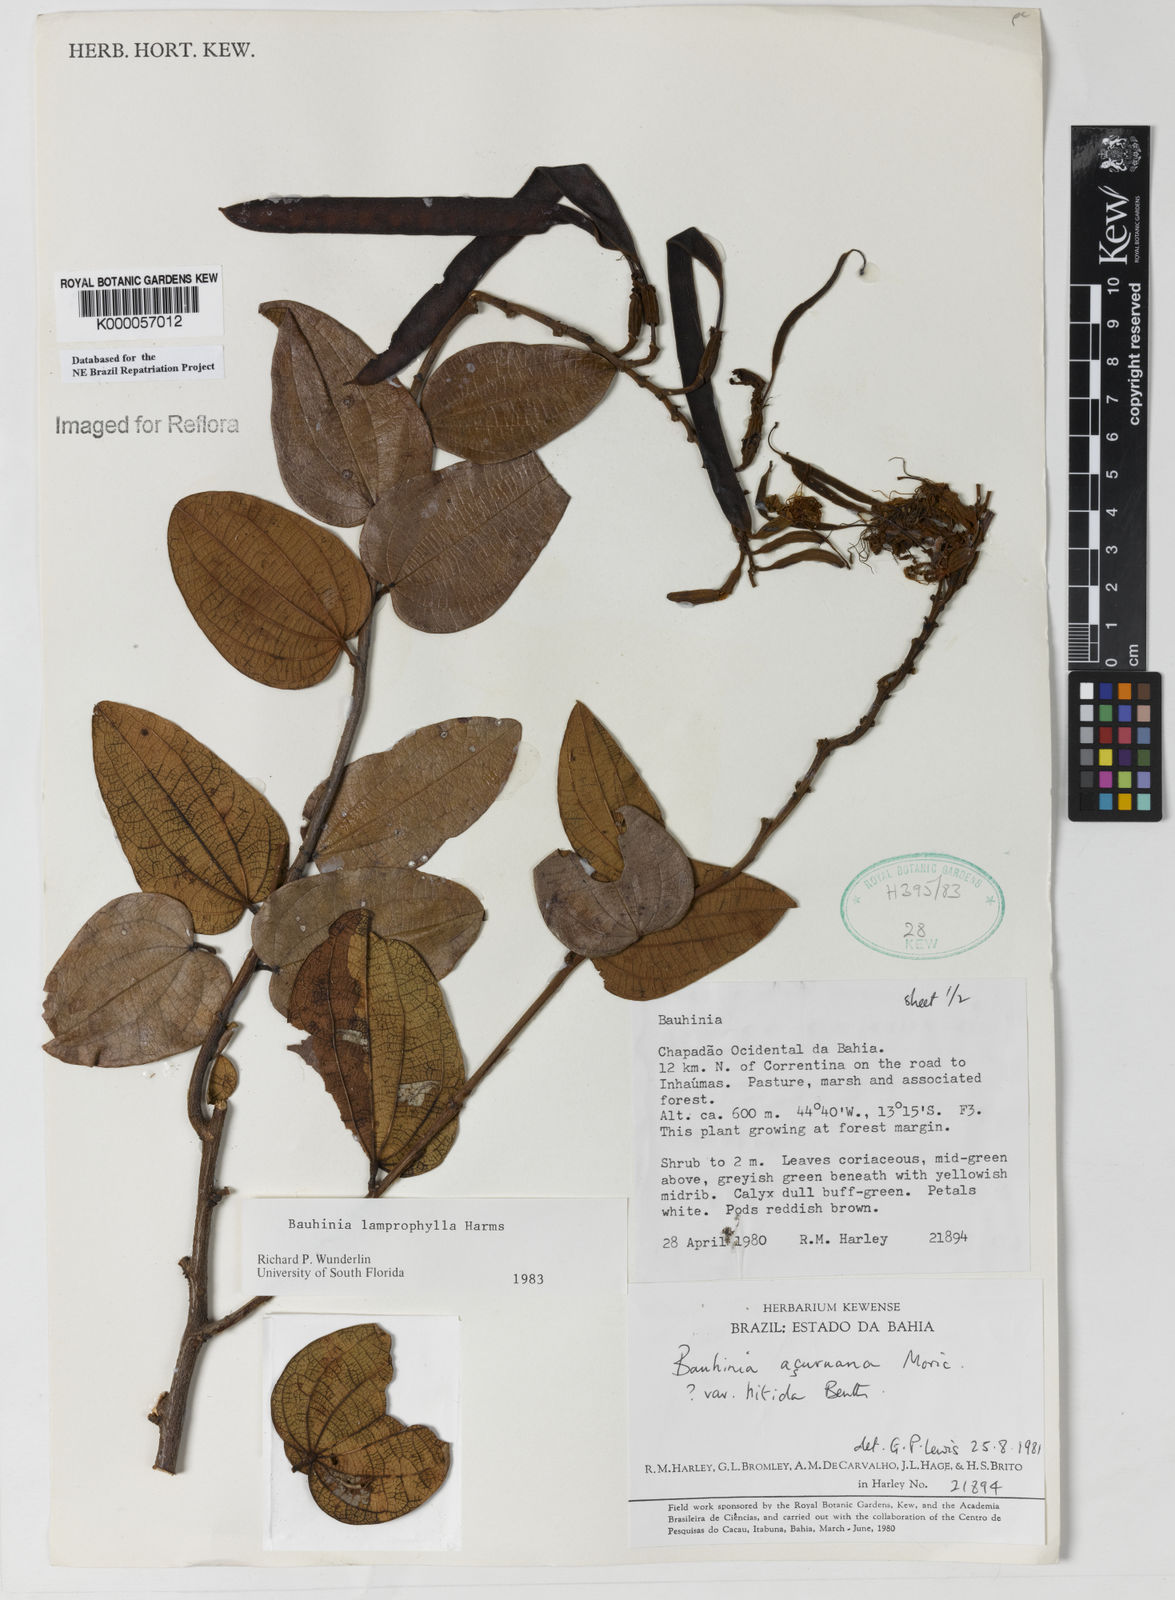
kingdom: Plantae
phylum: Tracheophyta
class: Magnoliopsida
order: Fabales
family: Fabaceae
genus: Bauhinia
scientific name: Bauhinia acuruana
